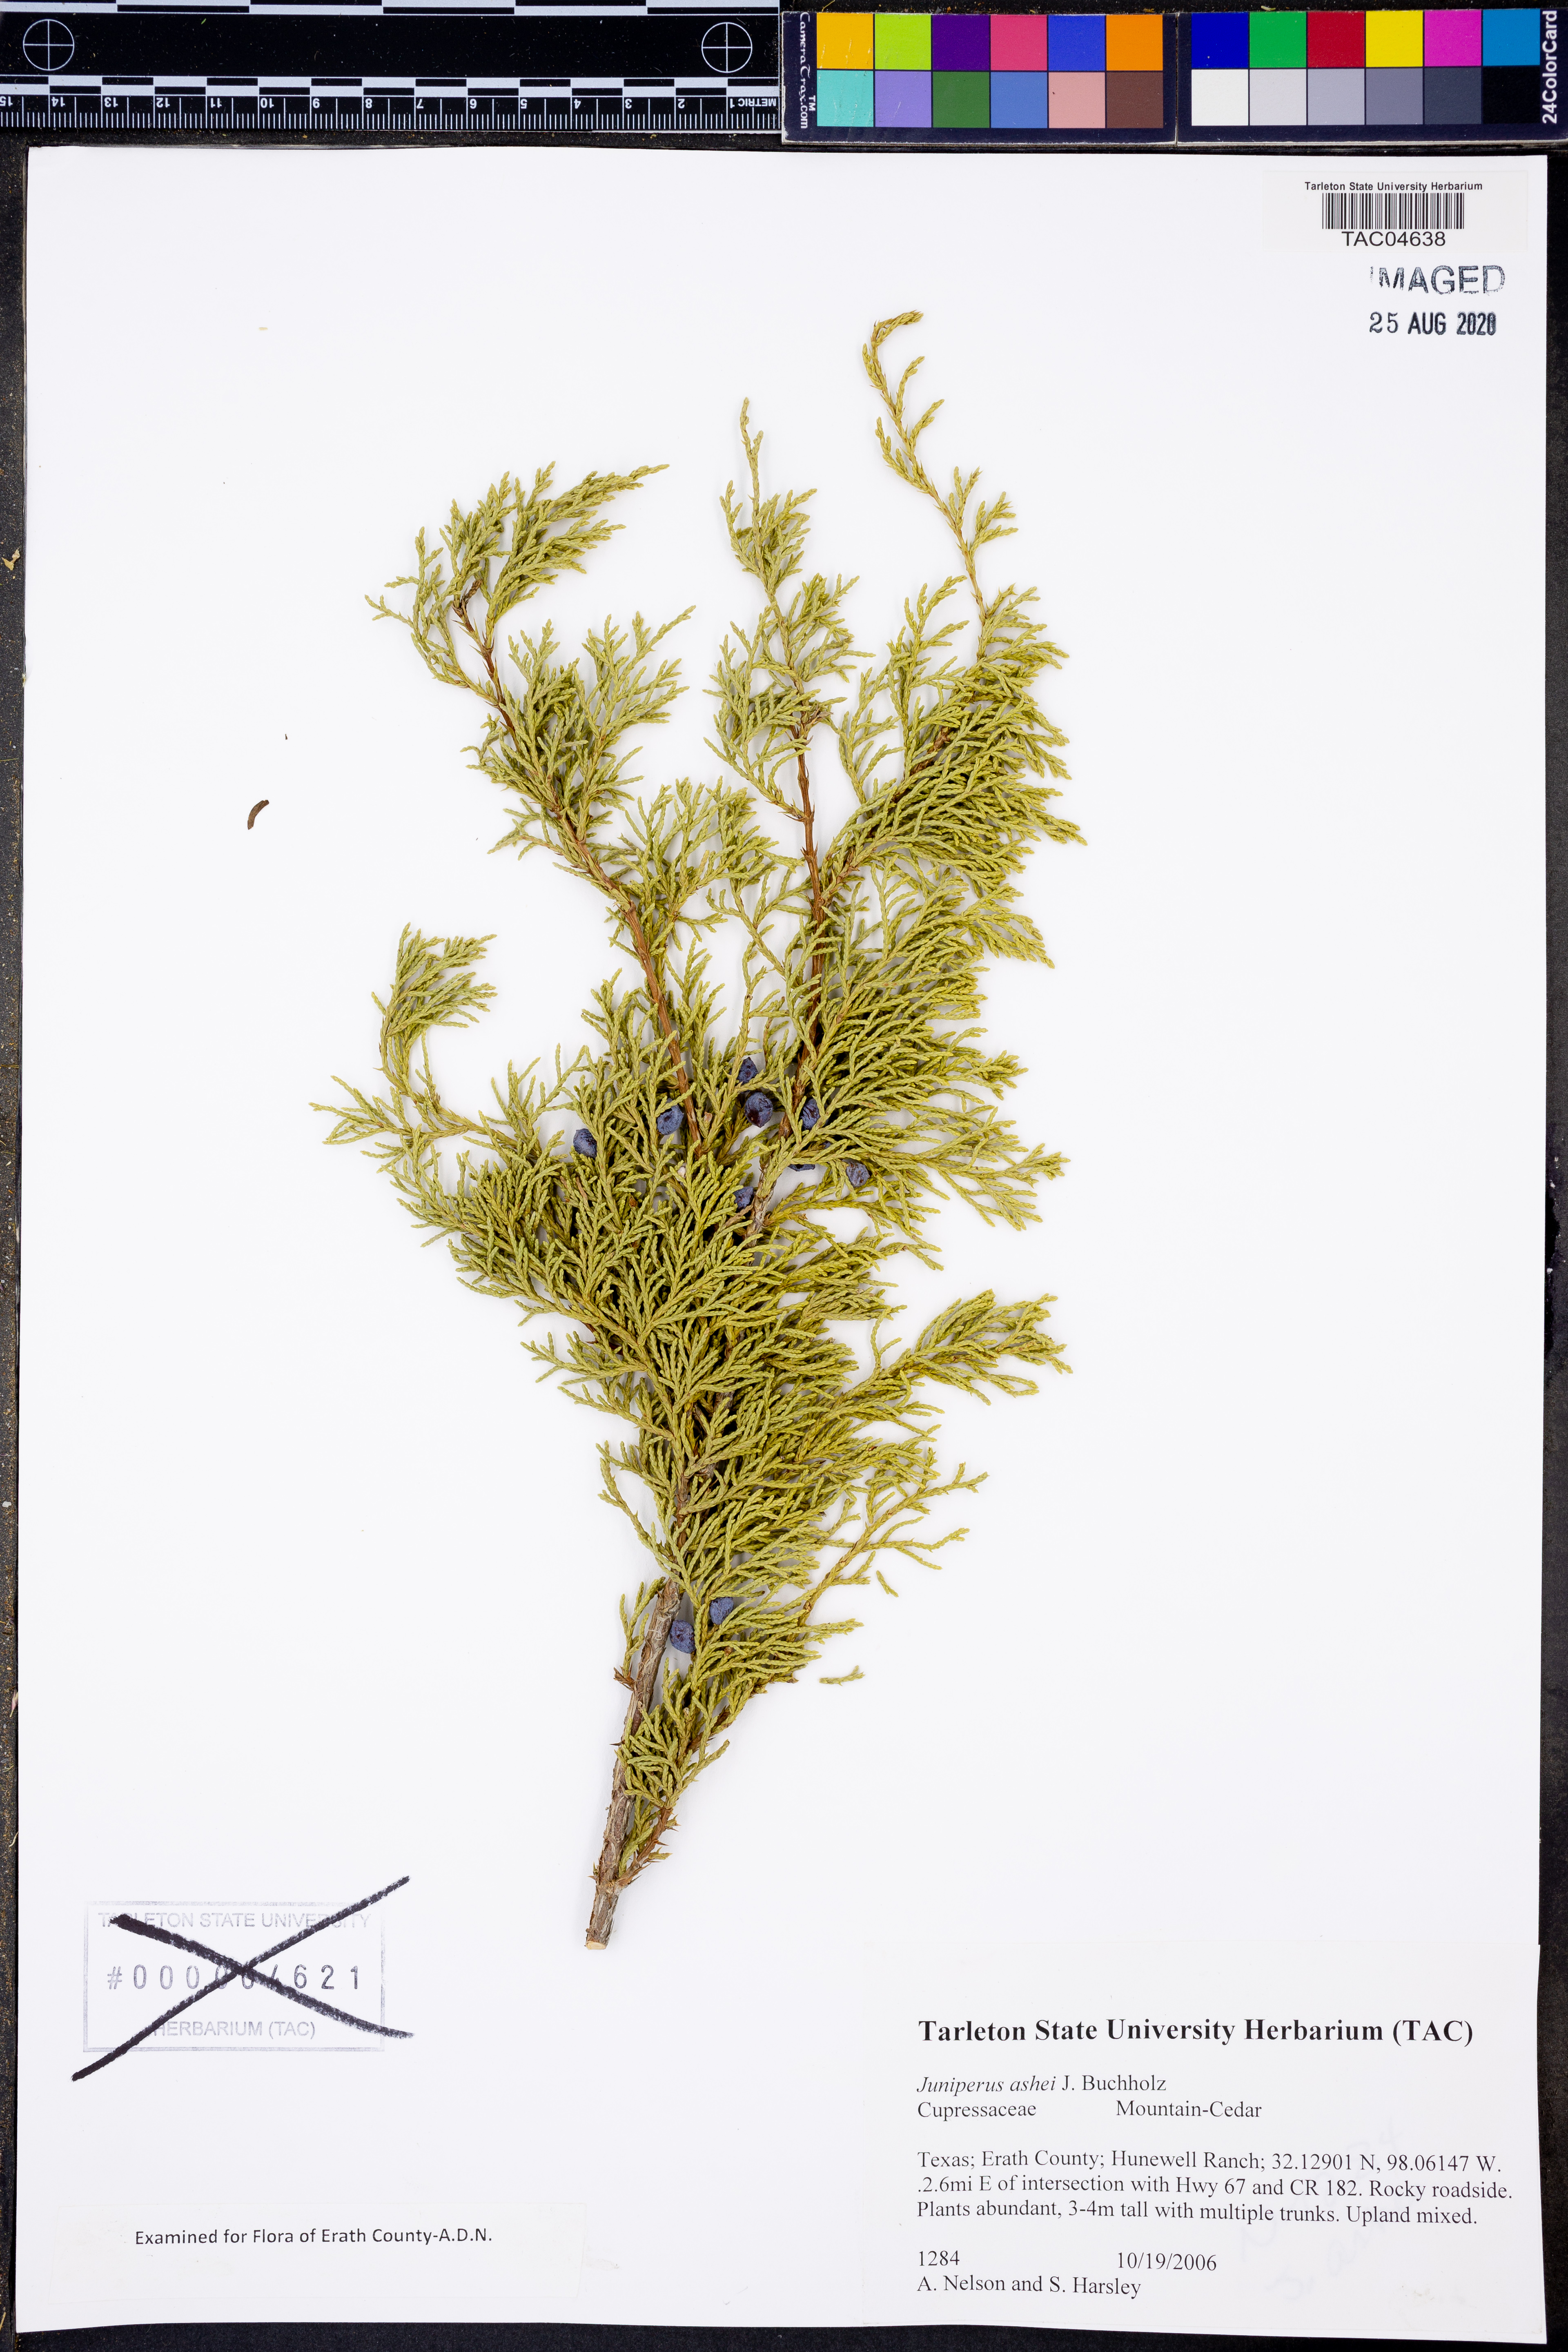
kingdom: Plantae
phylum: Tracheophyta
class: Pinopsida
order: Pinales
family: Cupressaceae
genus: Juniperus
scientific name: Juniperus ashei
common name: Mexican juniper
